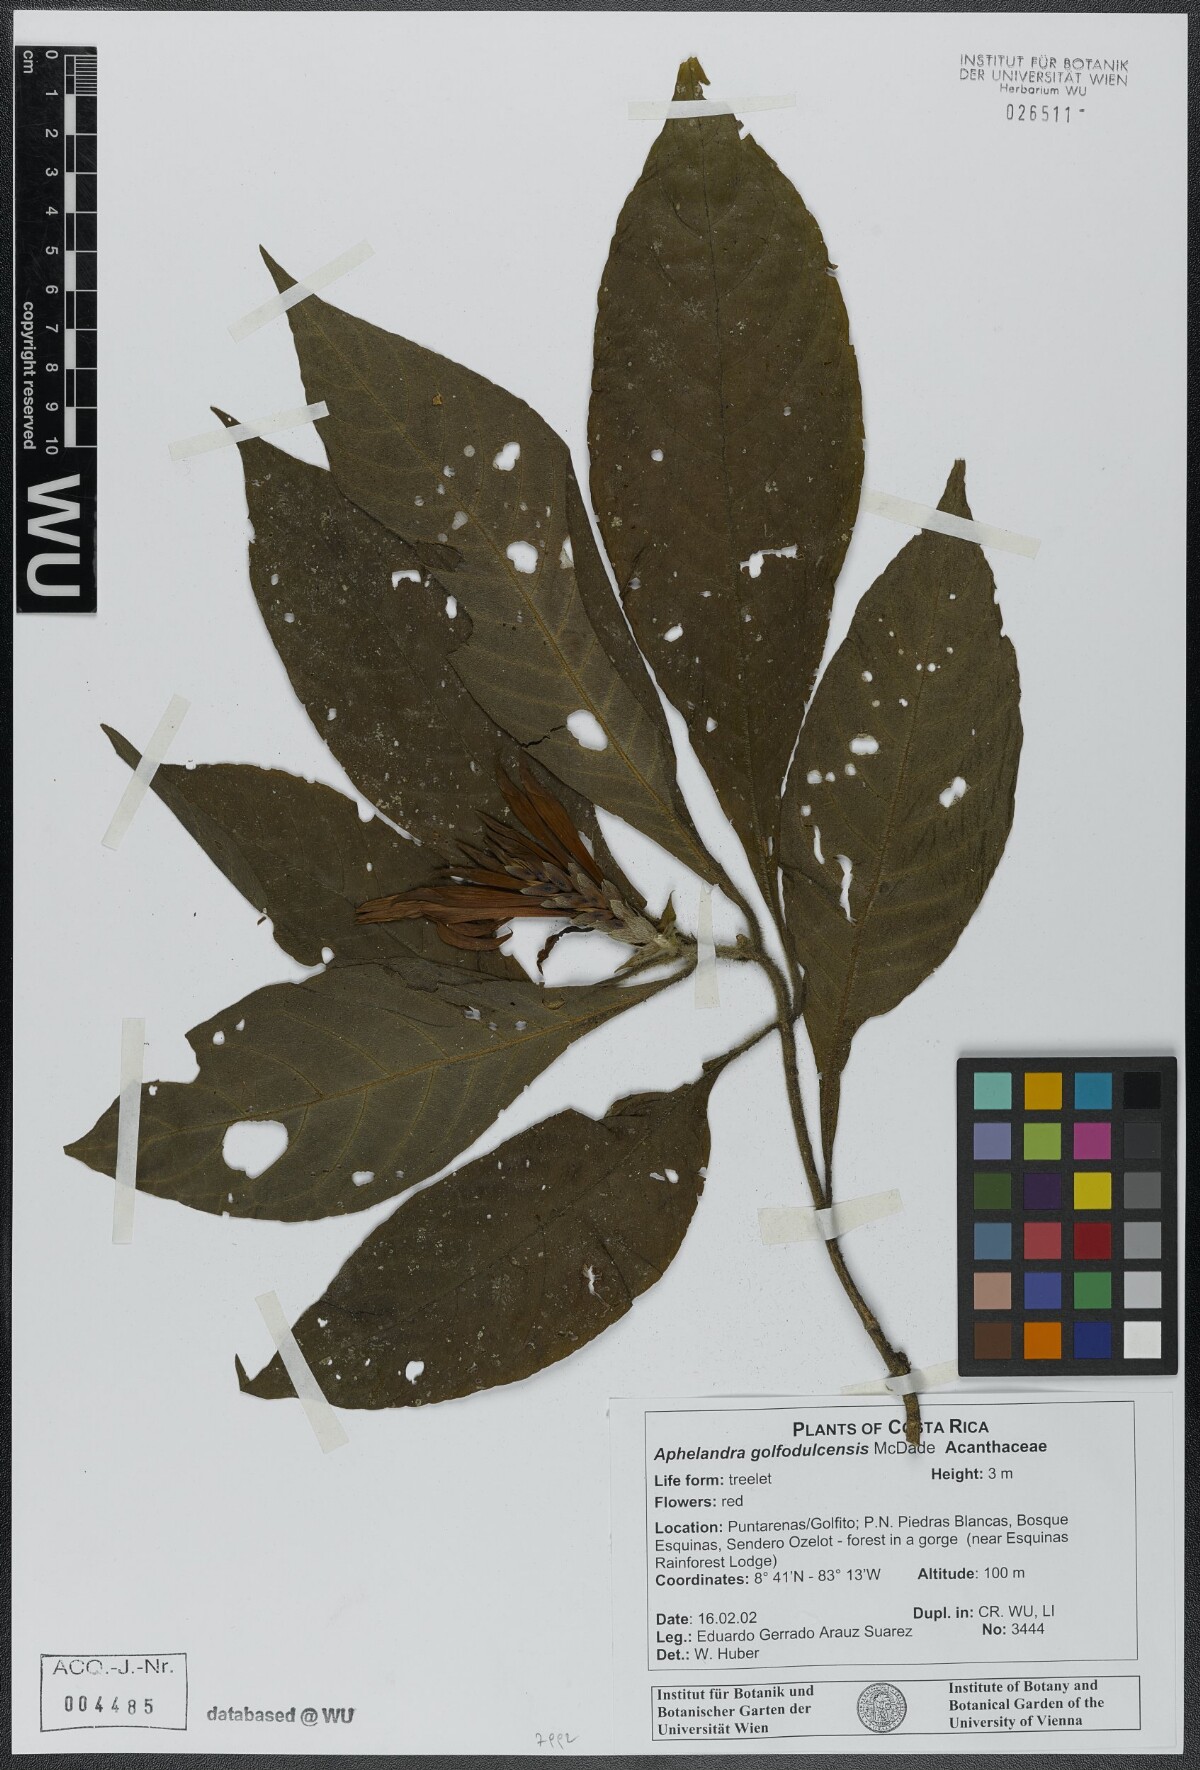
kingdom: Plantae
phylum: Tracheophyta
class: Magnoliopsida
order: Lamiales
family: Acanthaceae
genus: Aphelandra
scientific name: Aphelandra golfodulcensis
